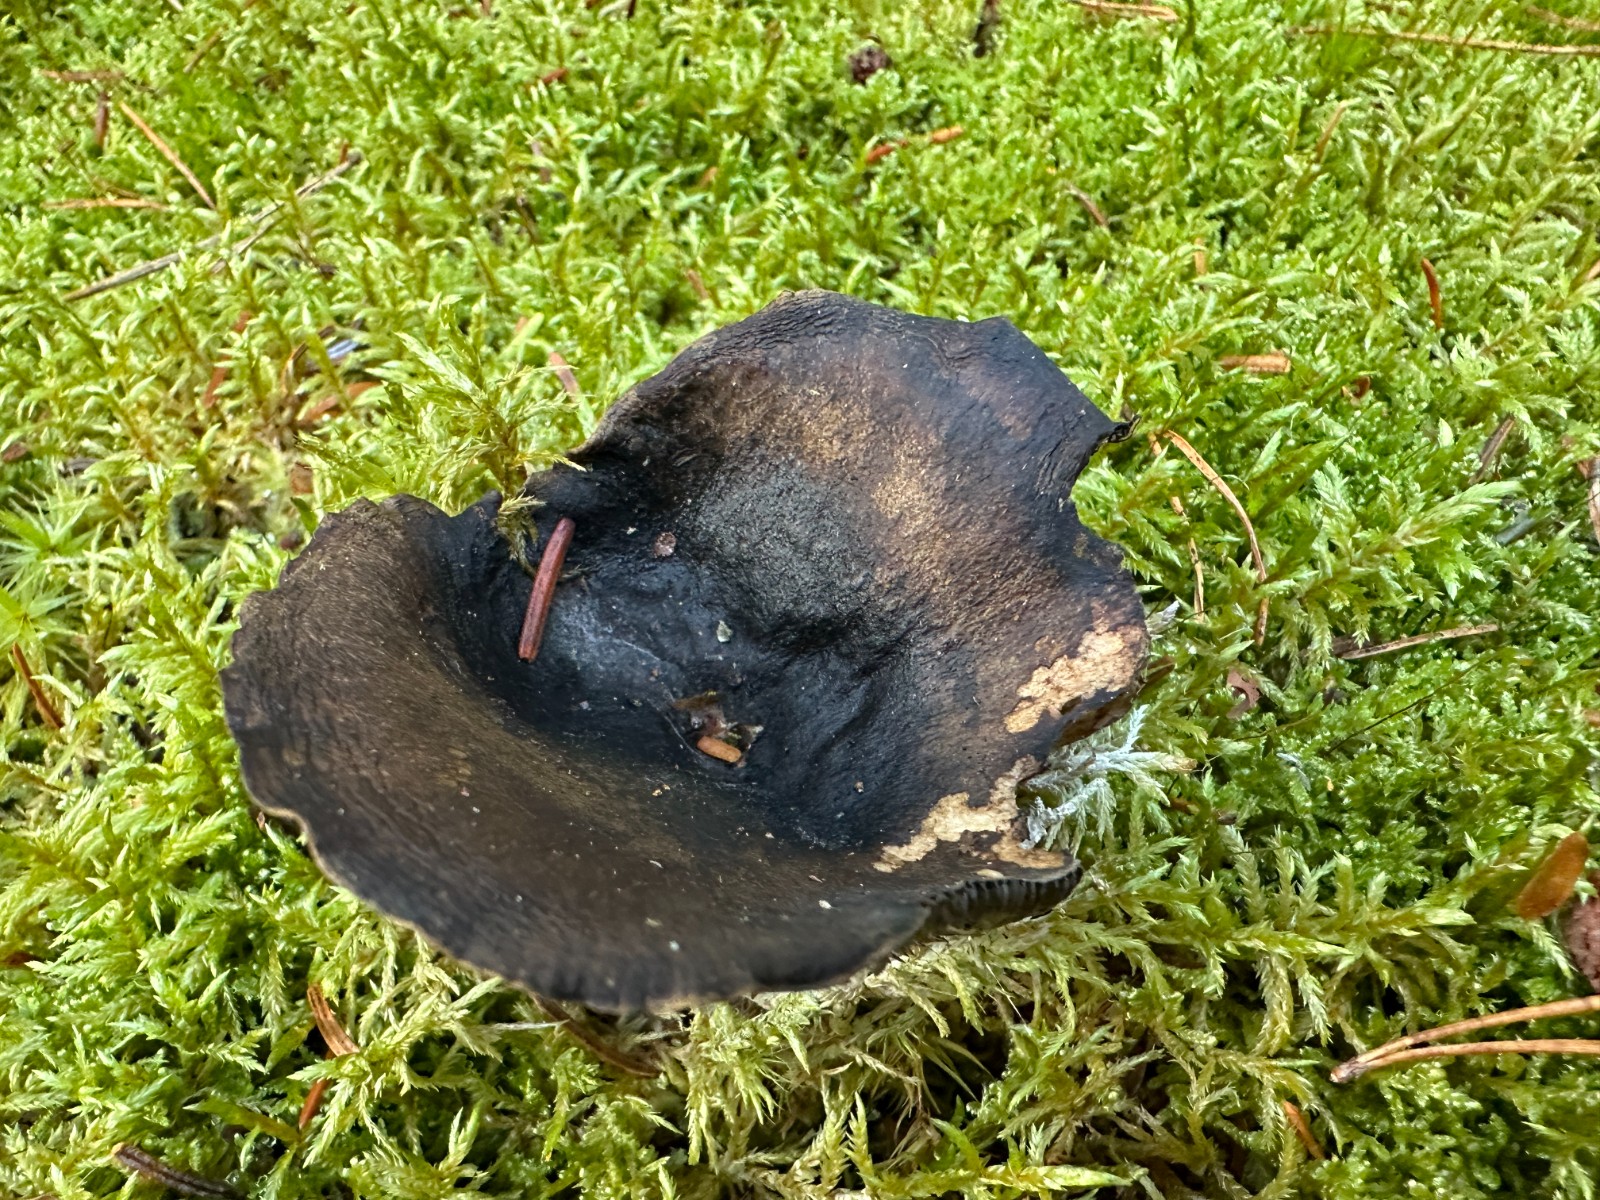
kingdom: Fungi
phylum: Basidiomycota
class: Agaricomycetes
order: Russulales
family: Russulaceae
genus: Lactarius
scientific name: Lactarius necator
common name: manddraber-mælkehat
